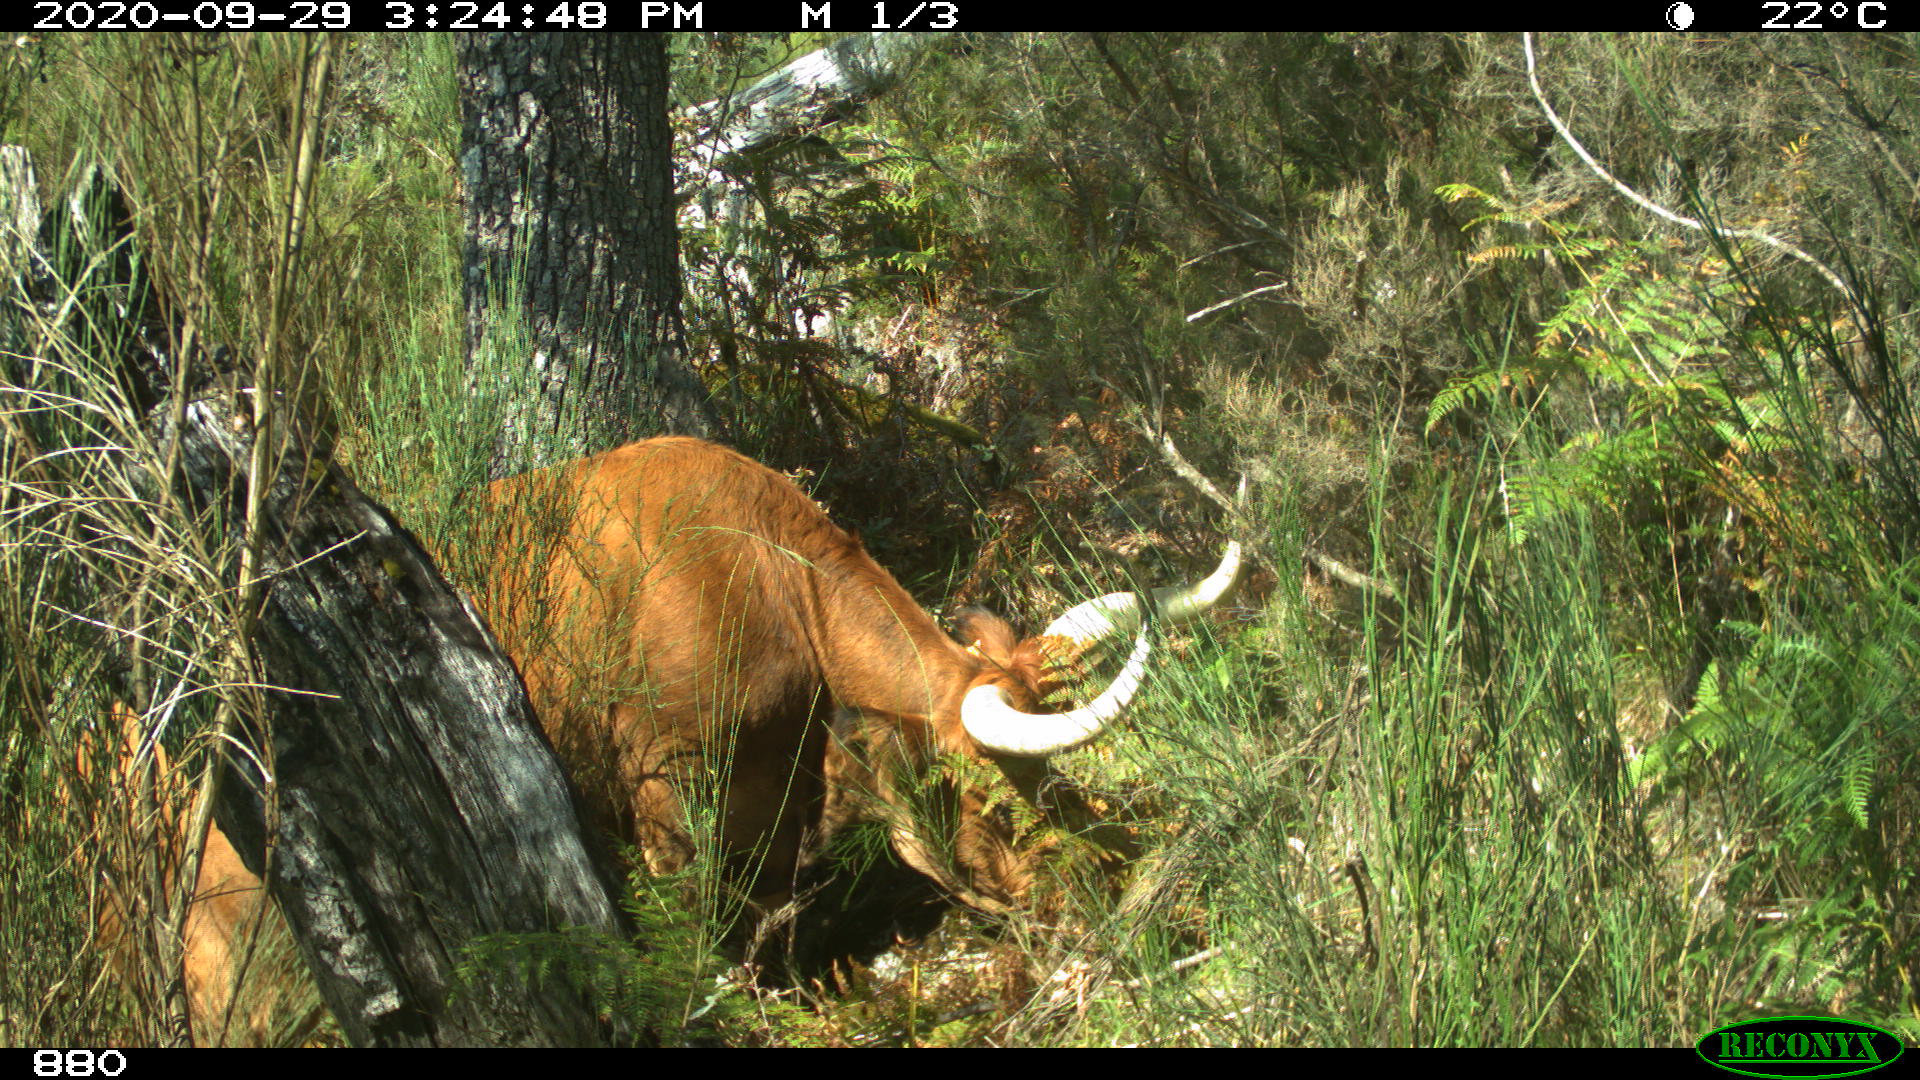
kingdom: Animalia
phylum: Chordata
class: Mammalia
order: Artiodactyla
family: Bovidae
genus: Bos
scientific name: Bos taurus
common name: Domesticated cattle
